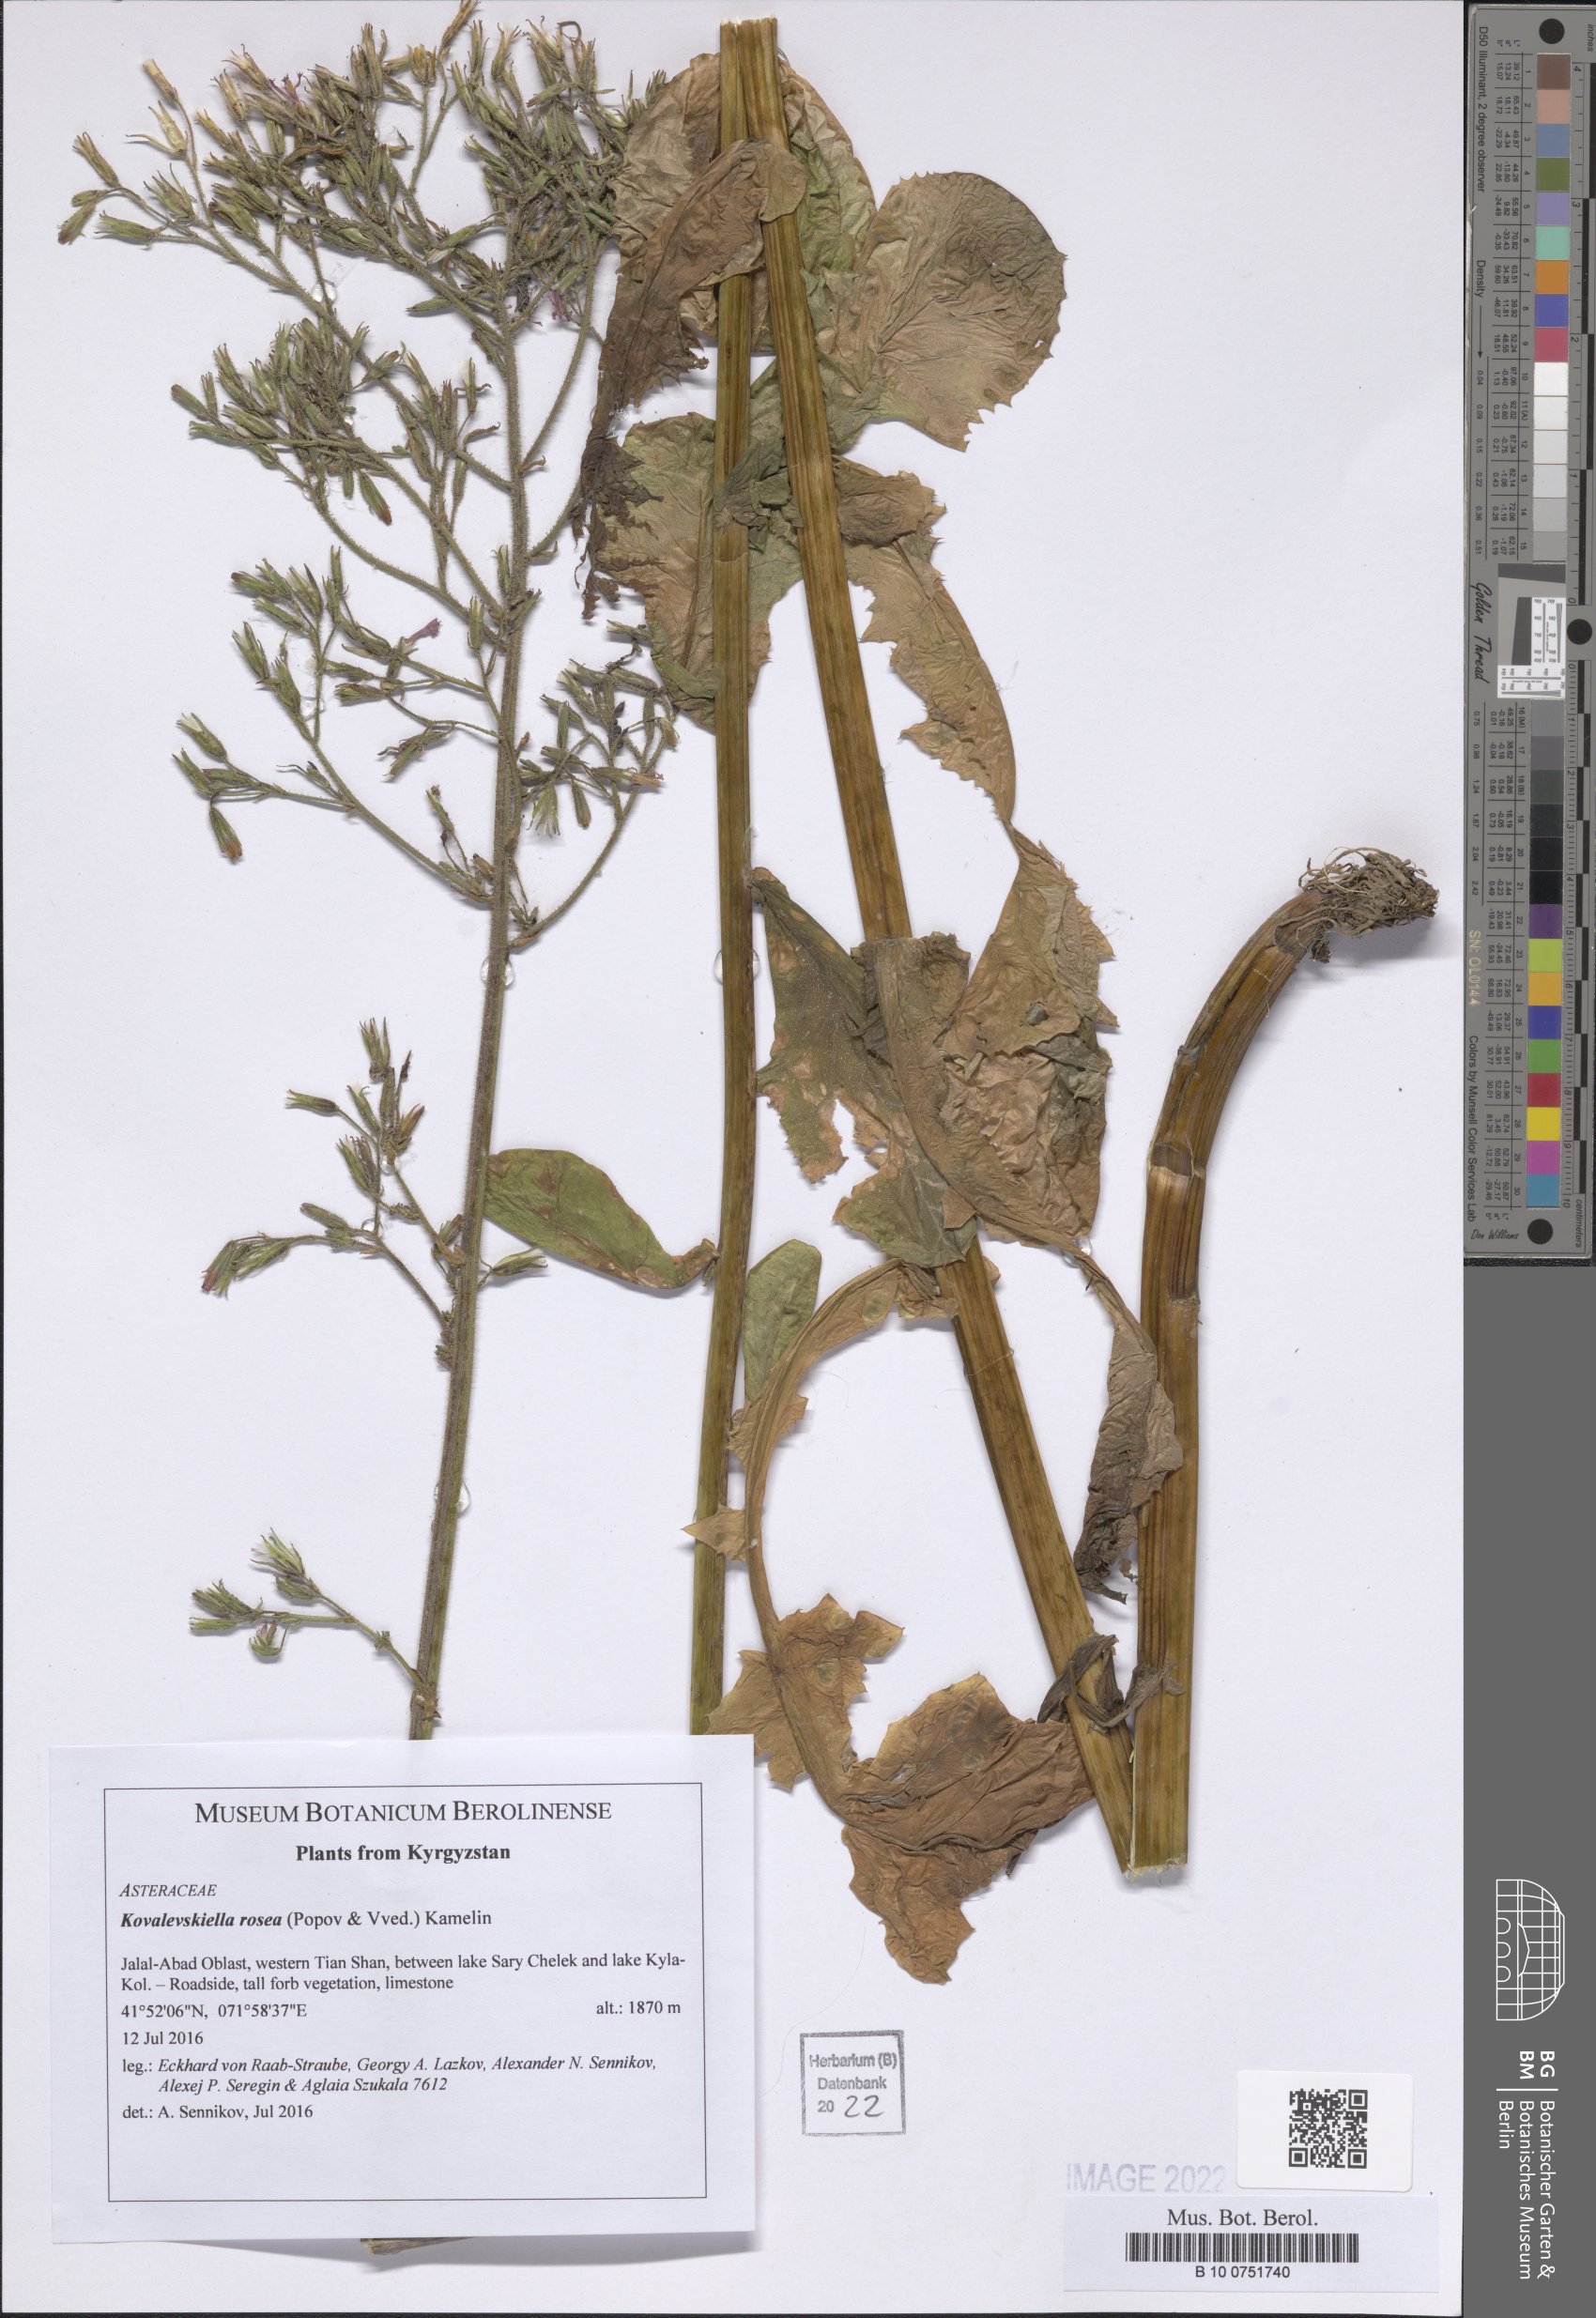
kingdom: Plantae
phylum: Tracheophyta
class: Magnoliopsida
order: Asterales
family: Asteraceae
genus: Kovalevskiella
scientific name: Kovalevskiella rosea
